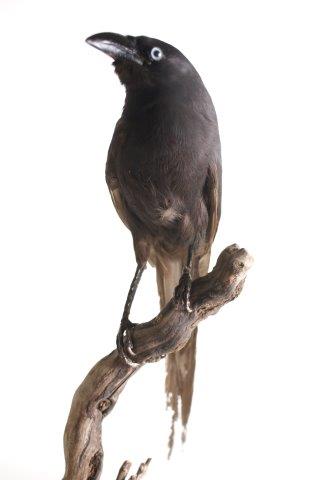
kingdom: Animalia
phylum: Chordata
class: Aves
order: Passeriformes
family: Corvidae
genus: Ptilostomus
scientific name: Ptilostomus afer
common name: Piapiac
